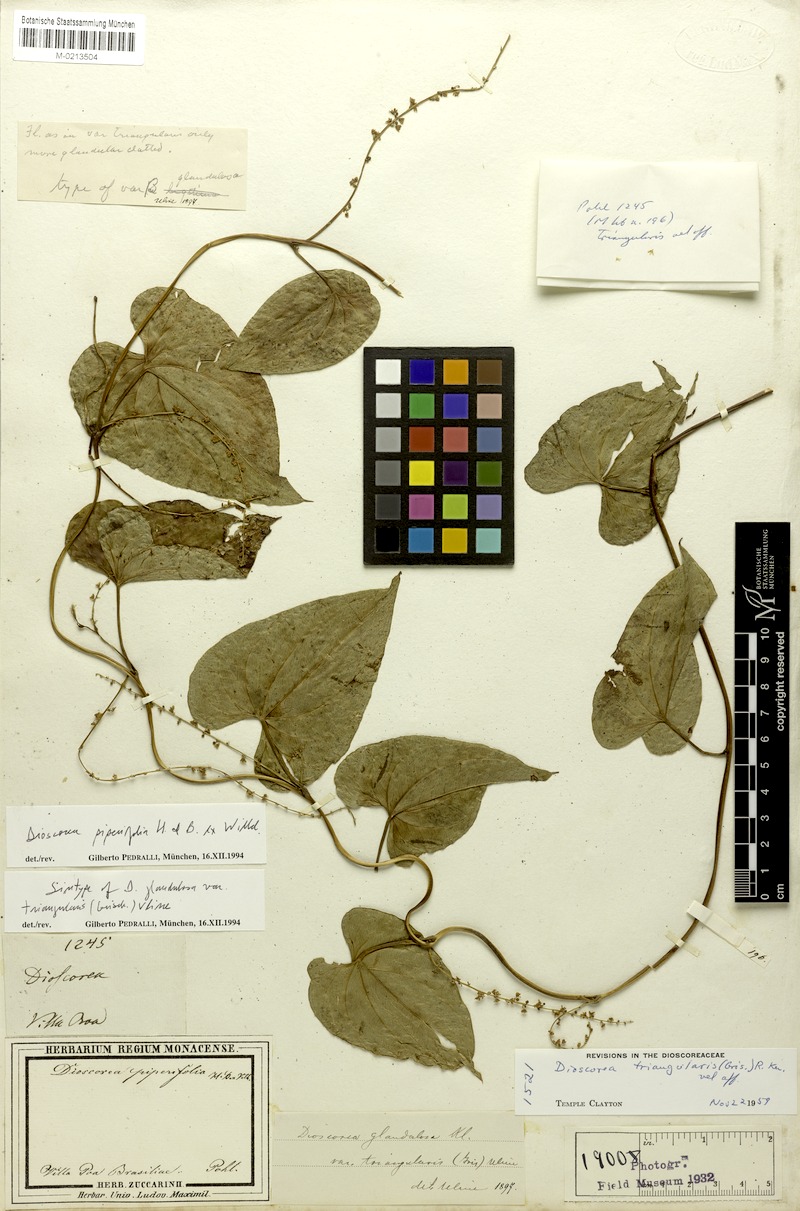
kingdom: Plantae
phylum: Tracheophyta
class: Liliopsida
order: Dioscoreales
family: Dioscoreaceae
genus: Dioscorea
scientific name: Dioscorea glandulosa
